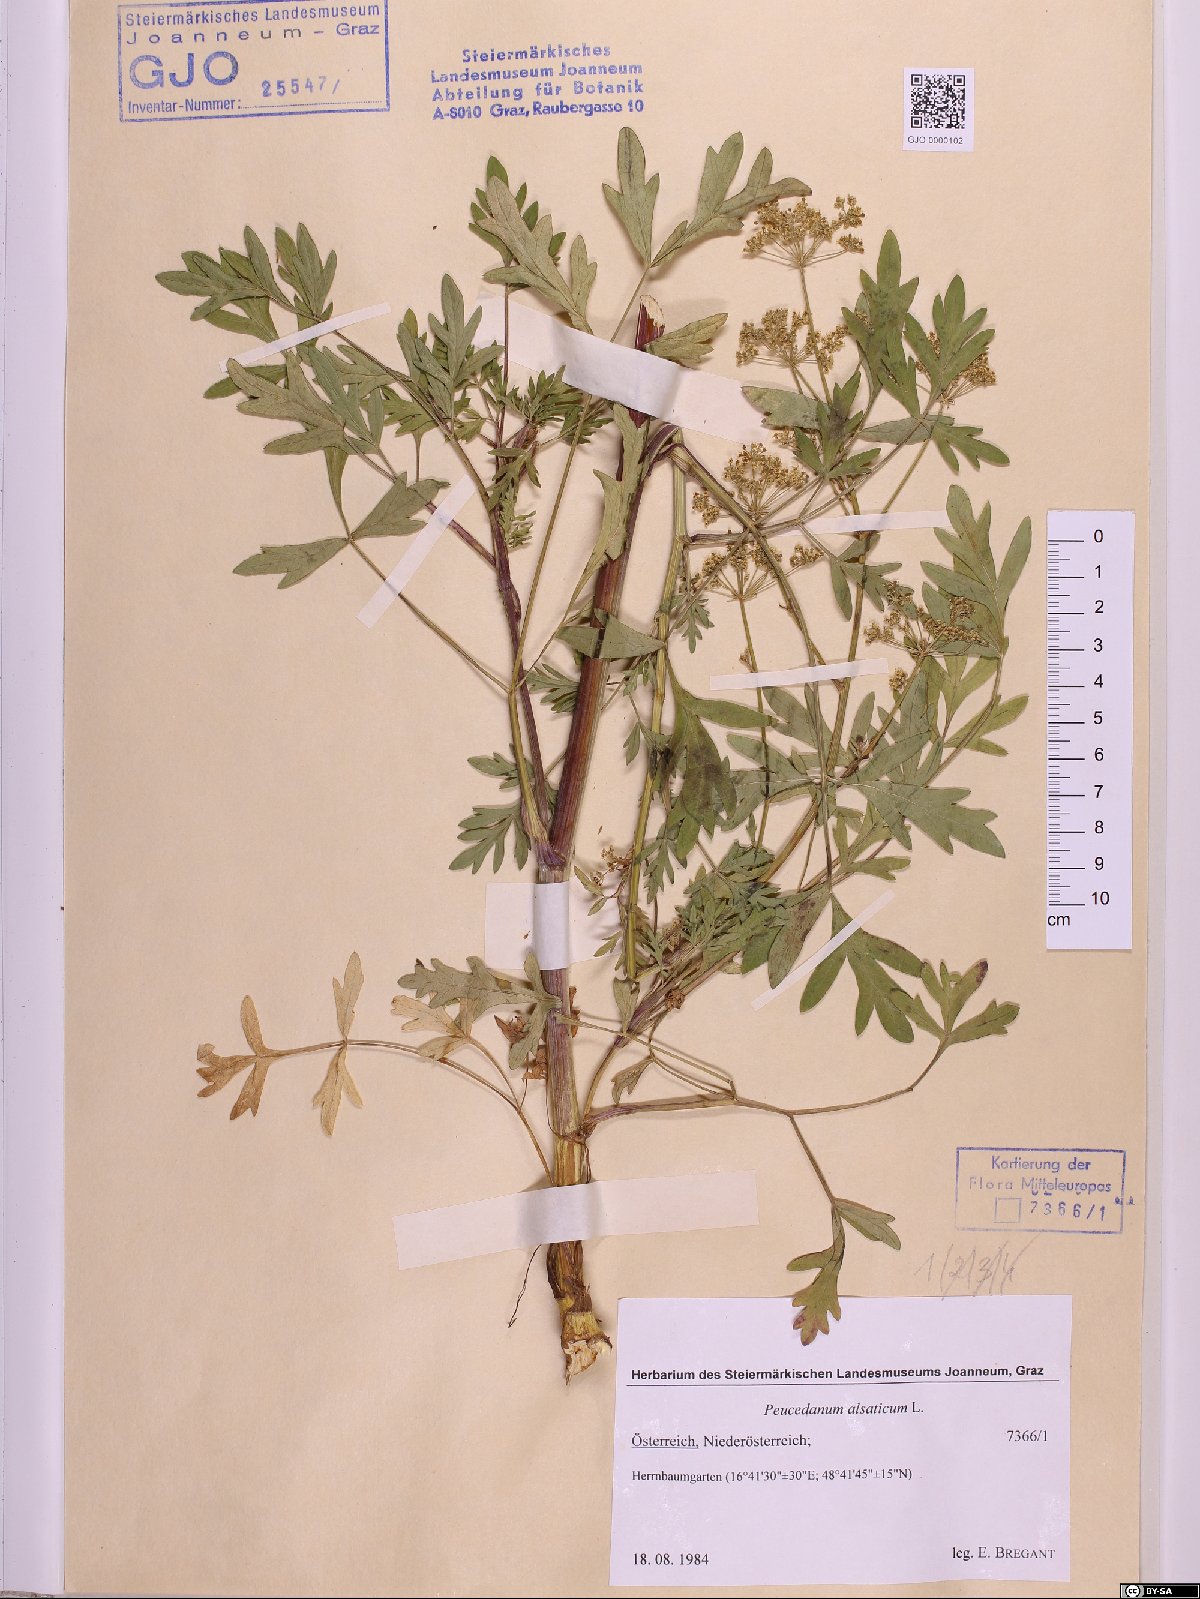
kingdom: Plantae
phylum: Tracheophyta
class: Magnoliopsida
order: Apiales
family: Apiaceae
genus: Xanthoselinum
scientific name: Xanthoselinum alsaticum
